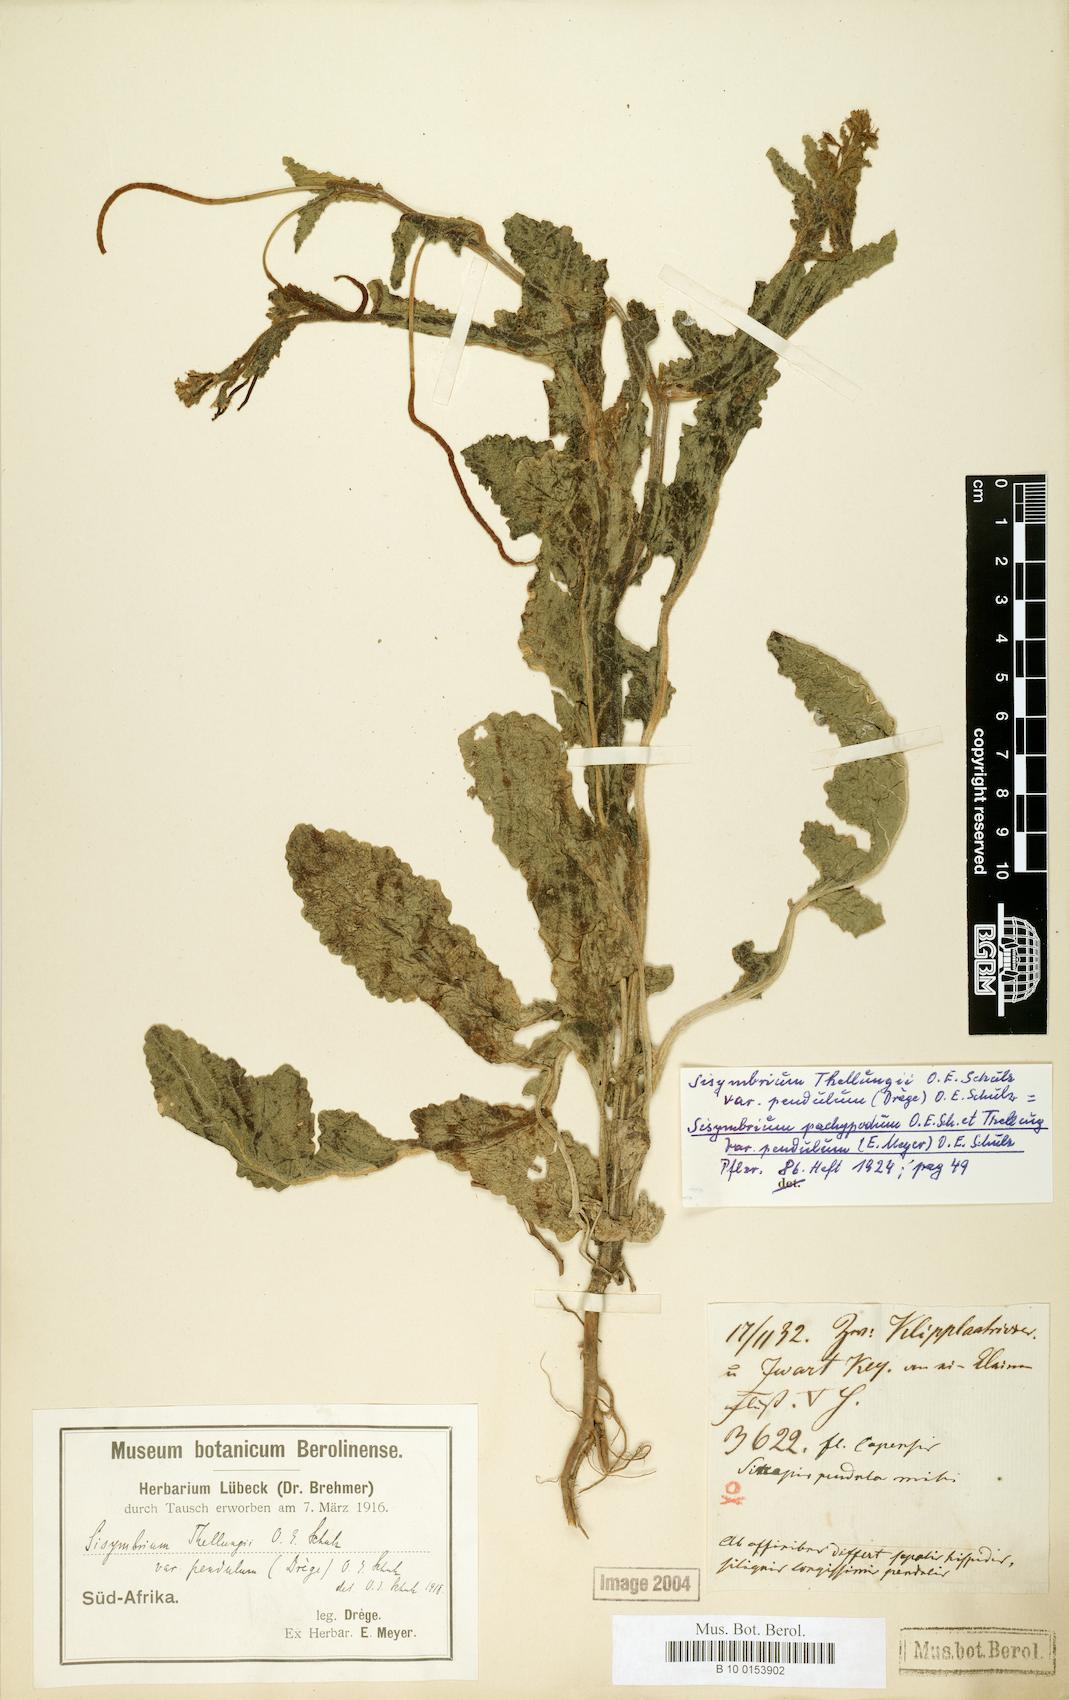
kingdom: Plantae
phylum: Tracheophyta
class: Magnoliopsida
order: Brassicales
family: Brassicaceae
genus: Erucastrum
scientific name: Erucastrum
